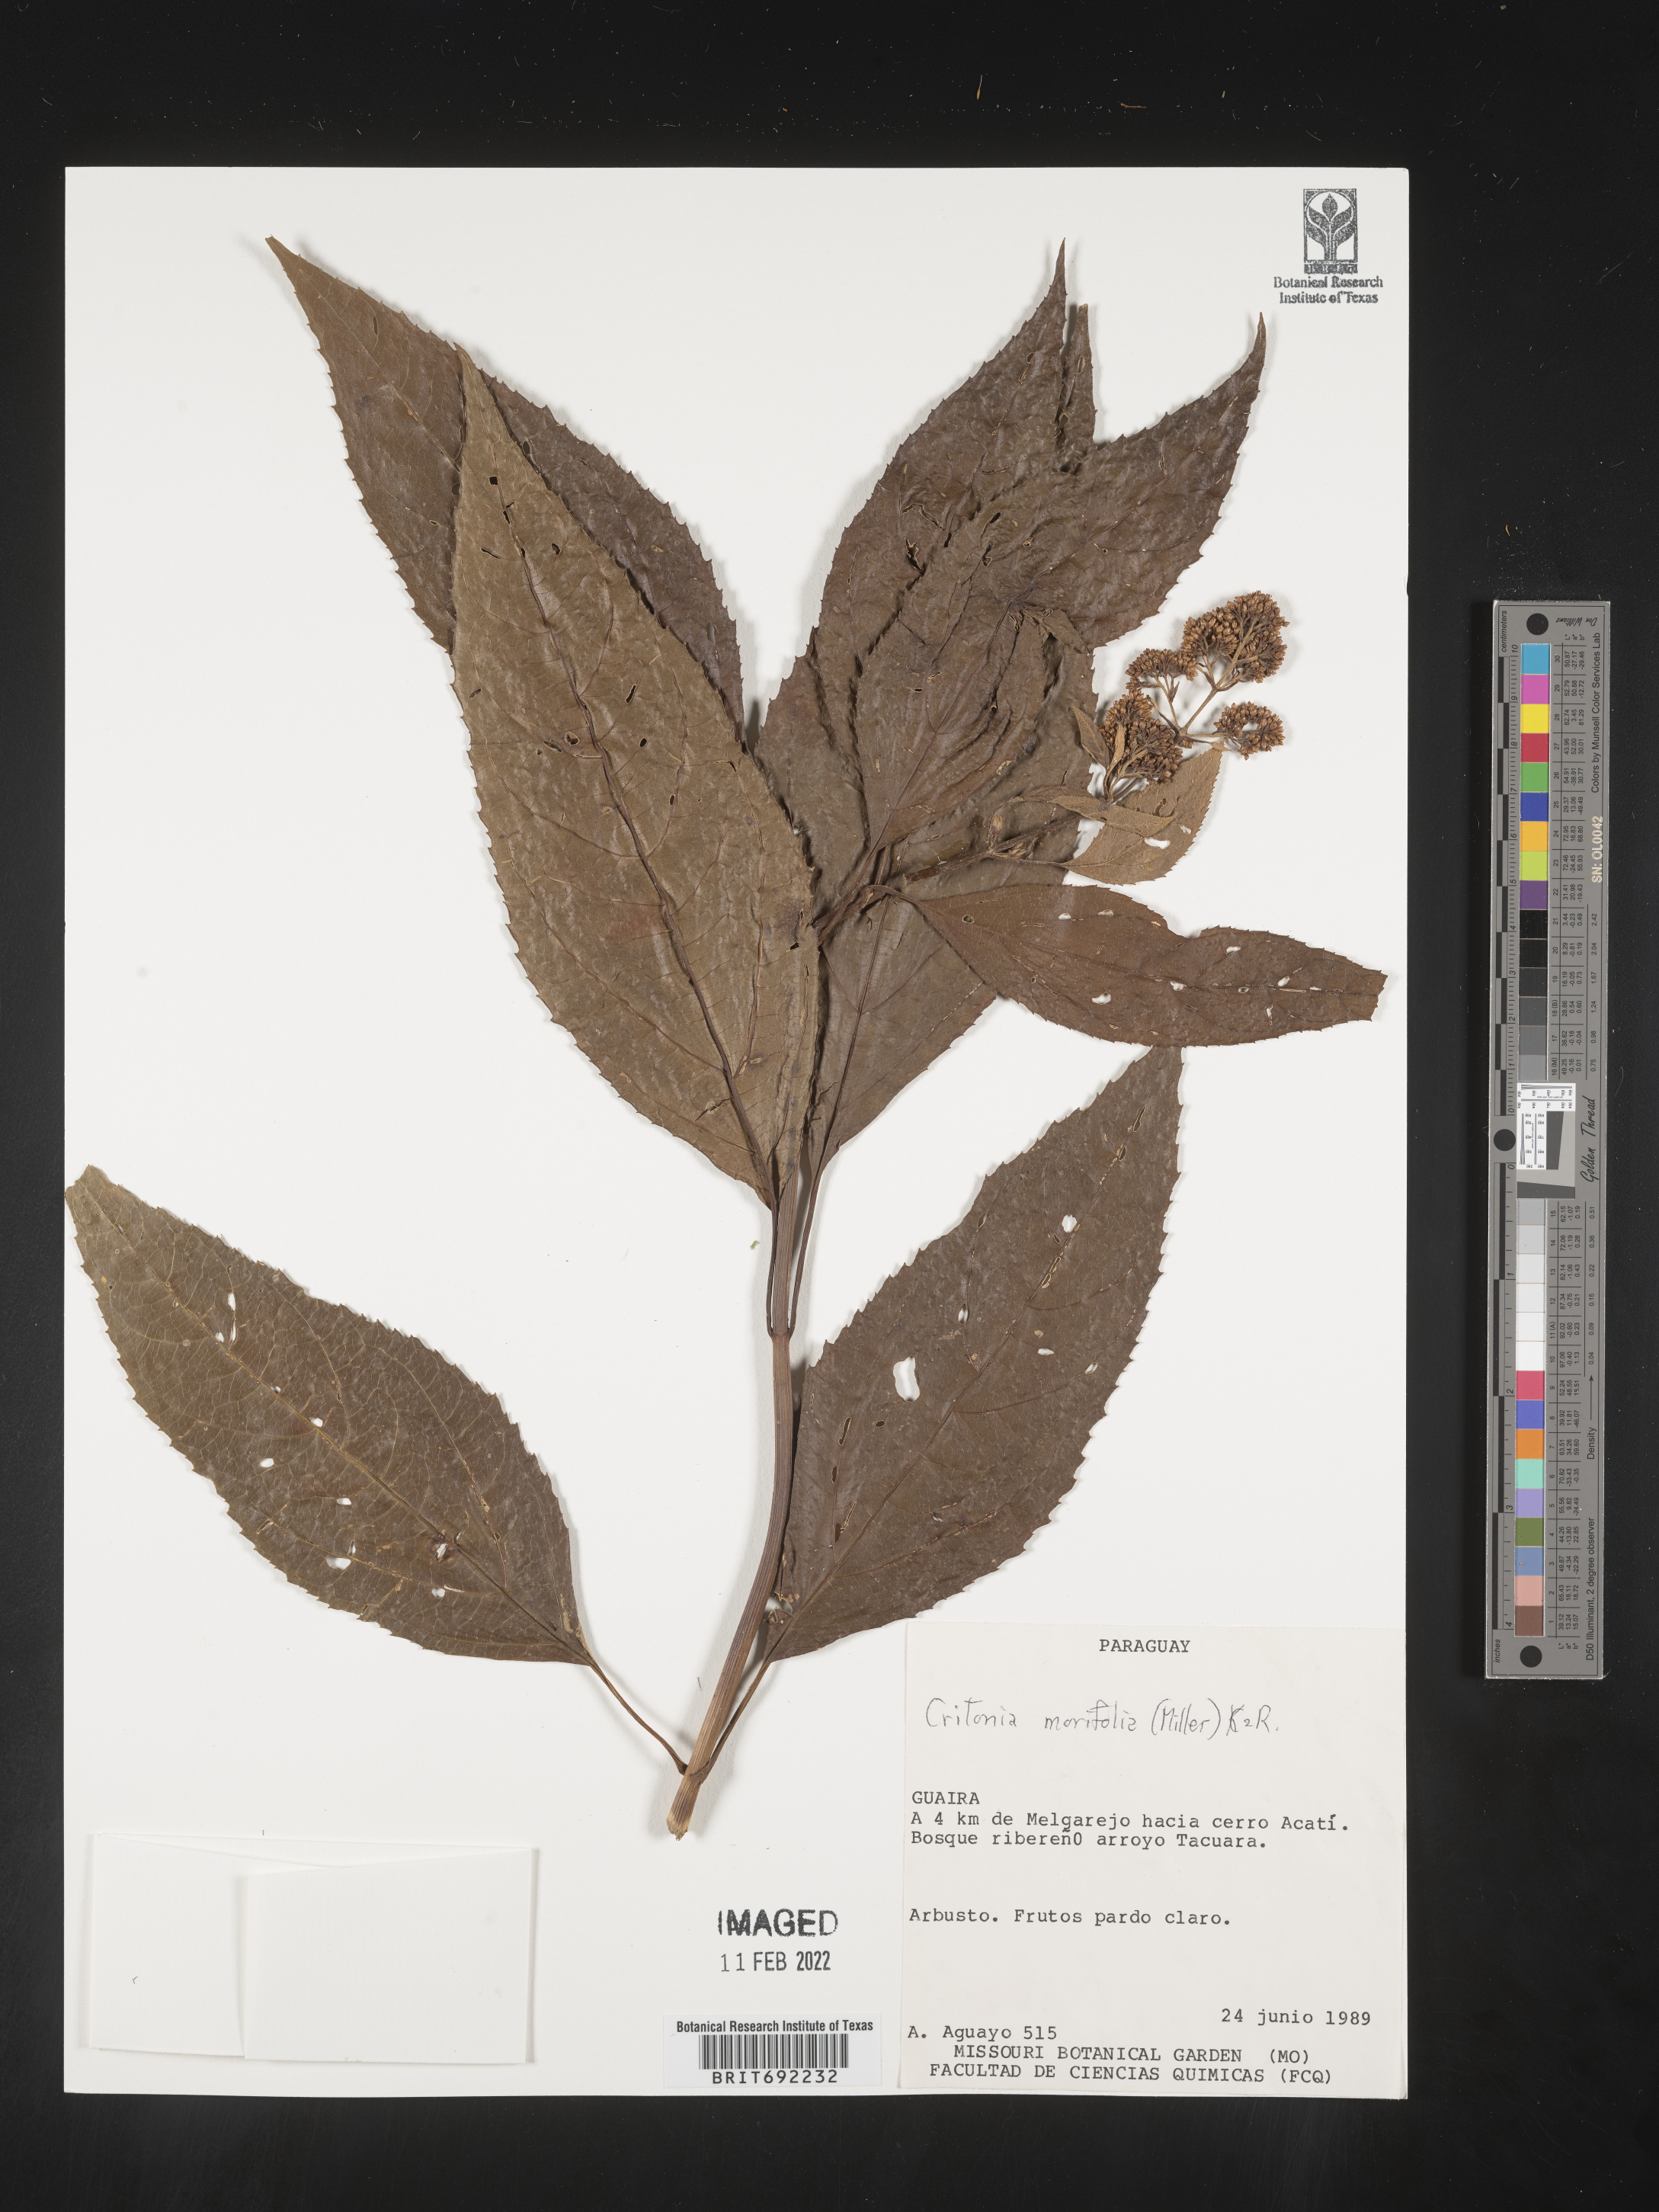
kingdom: Plantae
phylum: Tracheophyta
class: Magnoliopsida
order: Asterales
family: Asteraceae
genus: Critonia
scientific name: Critonia
